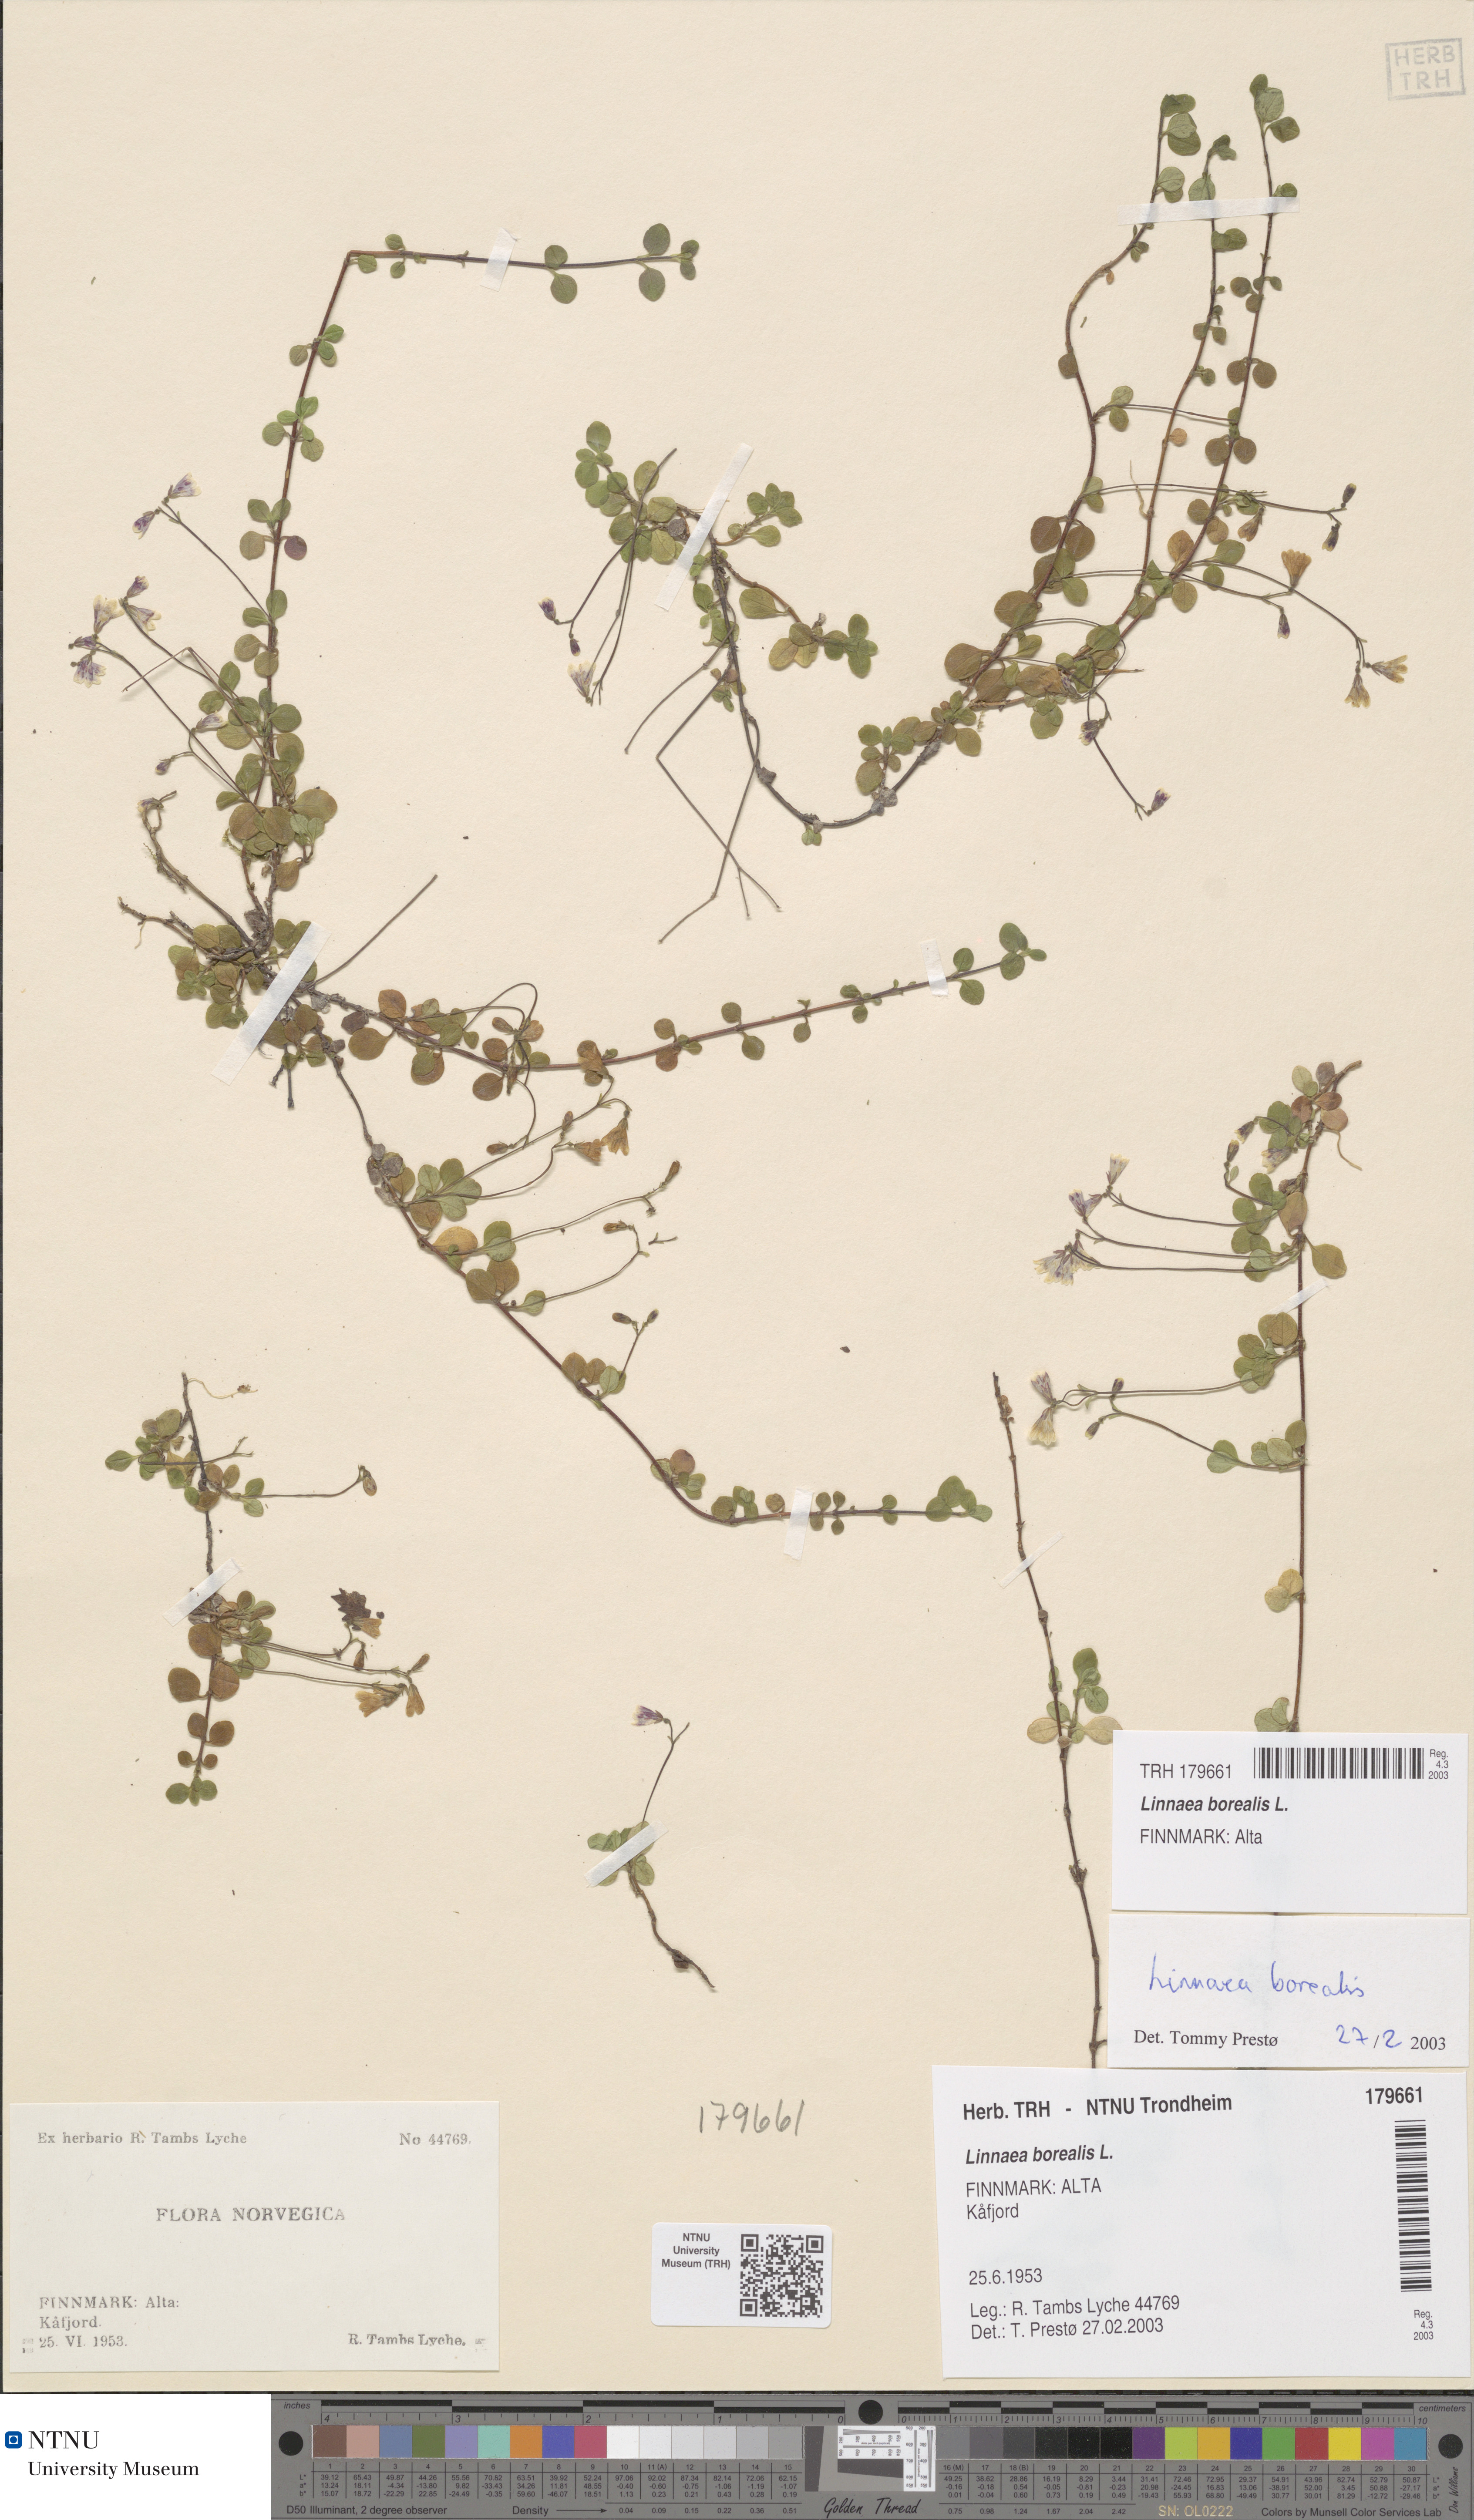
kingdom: Plantae
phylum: Tracheophyta
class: Magnoliopsida
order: Dipsacales
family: Caprifoliaceae
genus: Linnaea
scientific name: Linnaea borealis
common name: Twinflower
